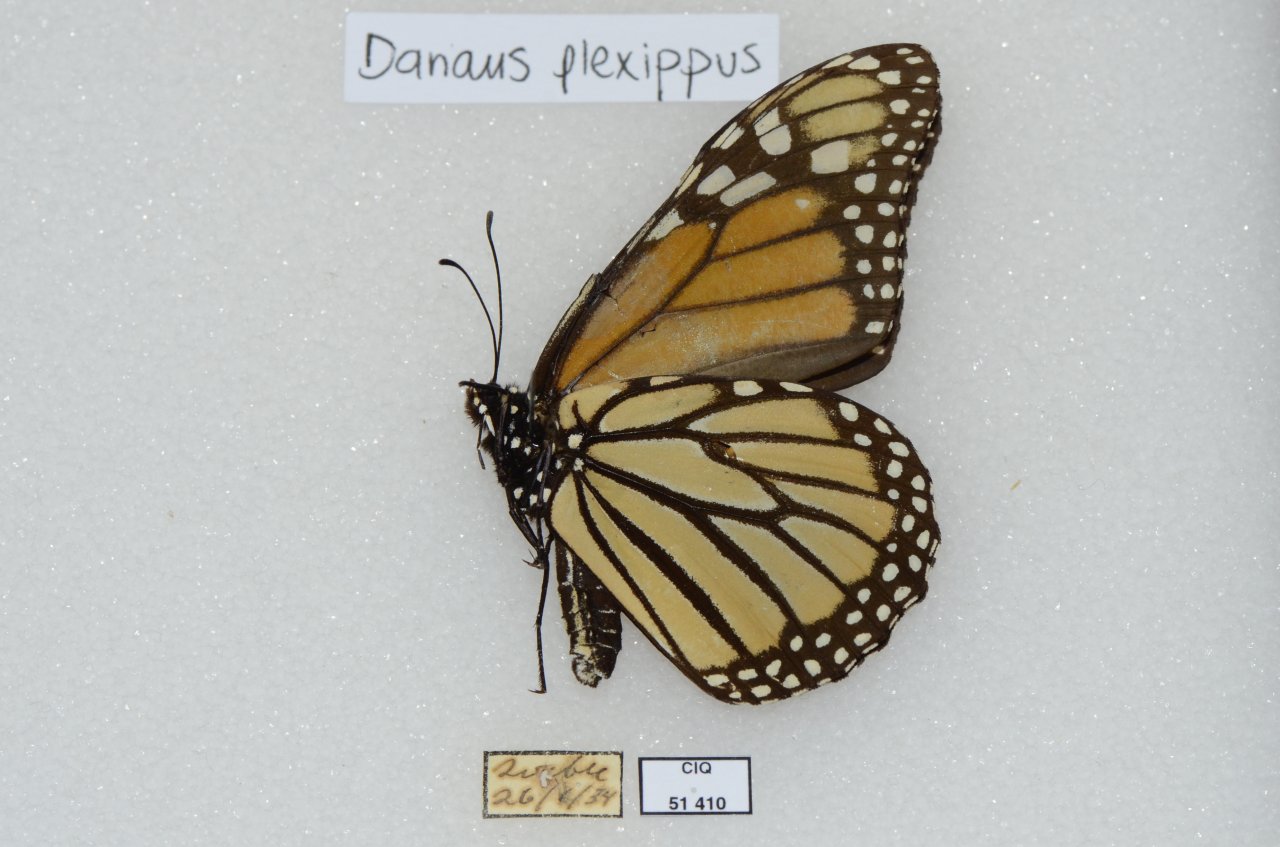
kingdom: Animalia
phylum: Arthropoda
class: Insecta
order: Lepidoptera
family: Nymphalidae
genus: Danaus
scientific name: Danaus plexippus
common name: Monarch
